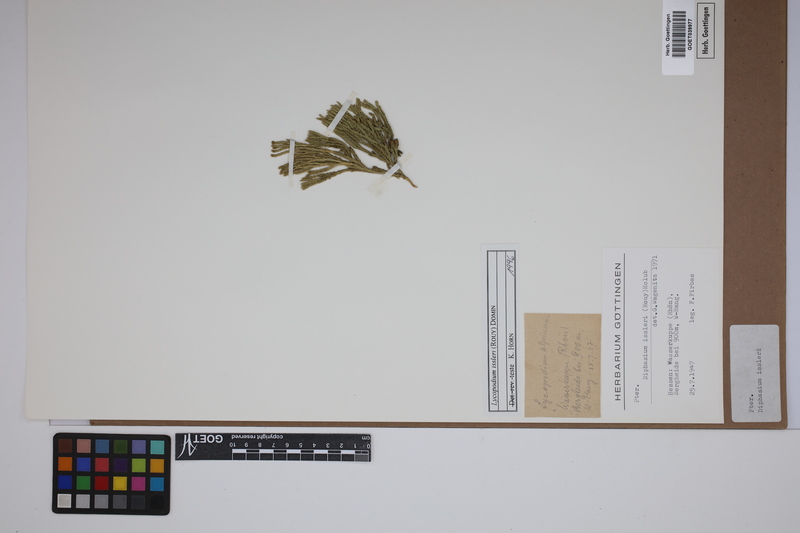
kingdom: Plantae
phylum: Tracheophyta
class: Lycopodiopsida
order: Lycopodiales
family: Lycopodiaceae
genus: Diphasiastrum
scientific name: Diphasiastrum issleri
